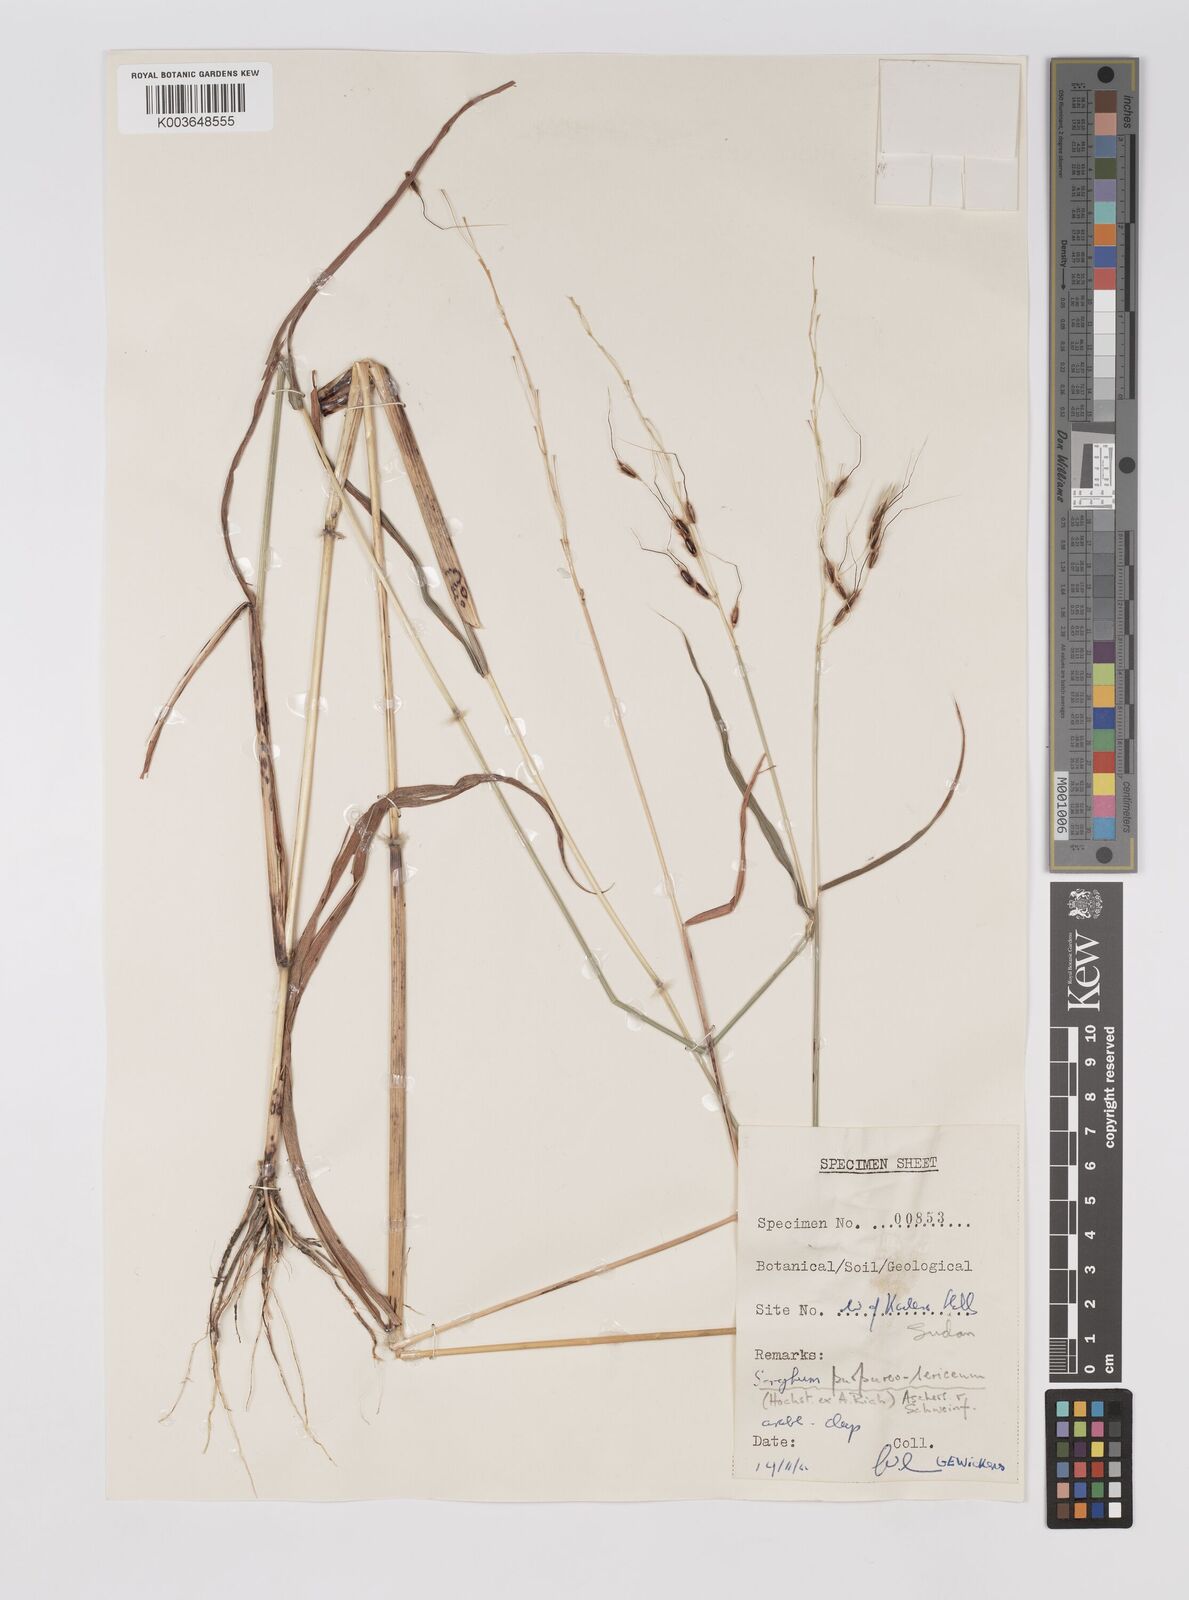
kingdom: Plantae
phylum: Tracheophyta
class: Liliopsida
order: Poales
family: Poaceae
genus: Sarga
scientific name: Sarga purpureosericea
